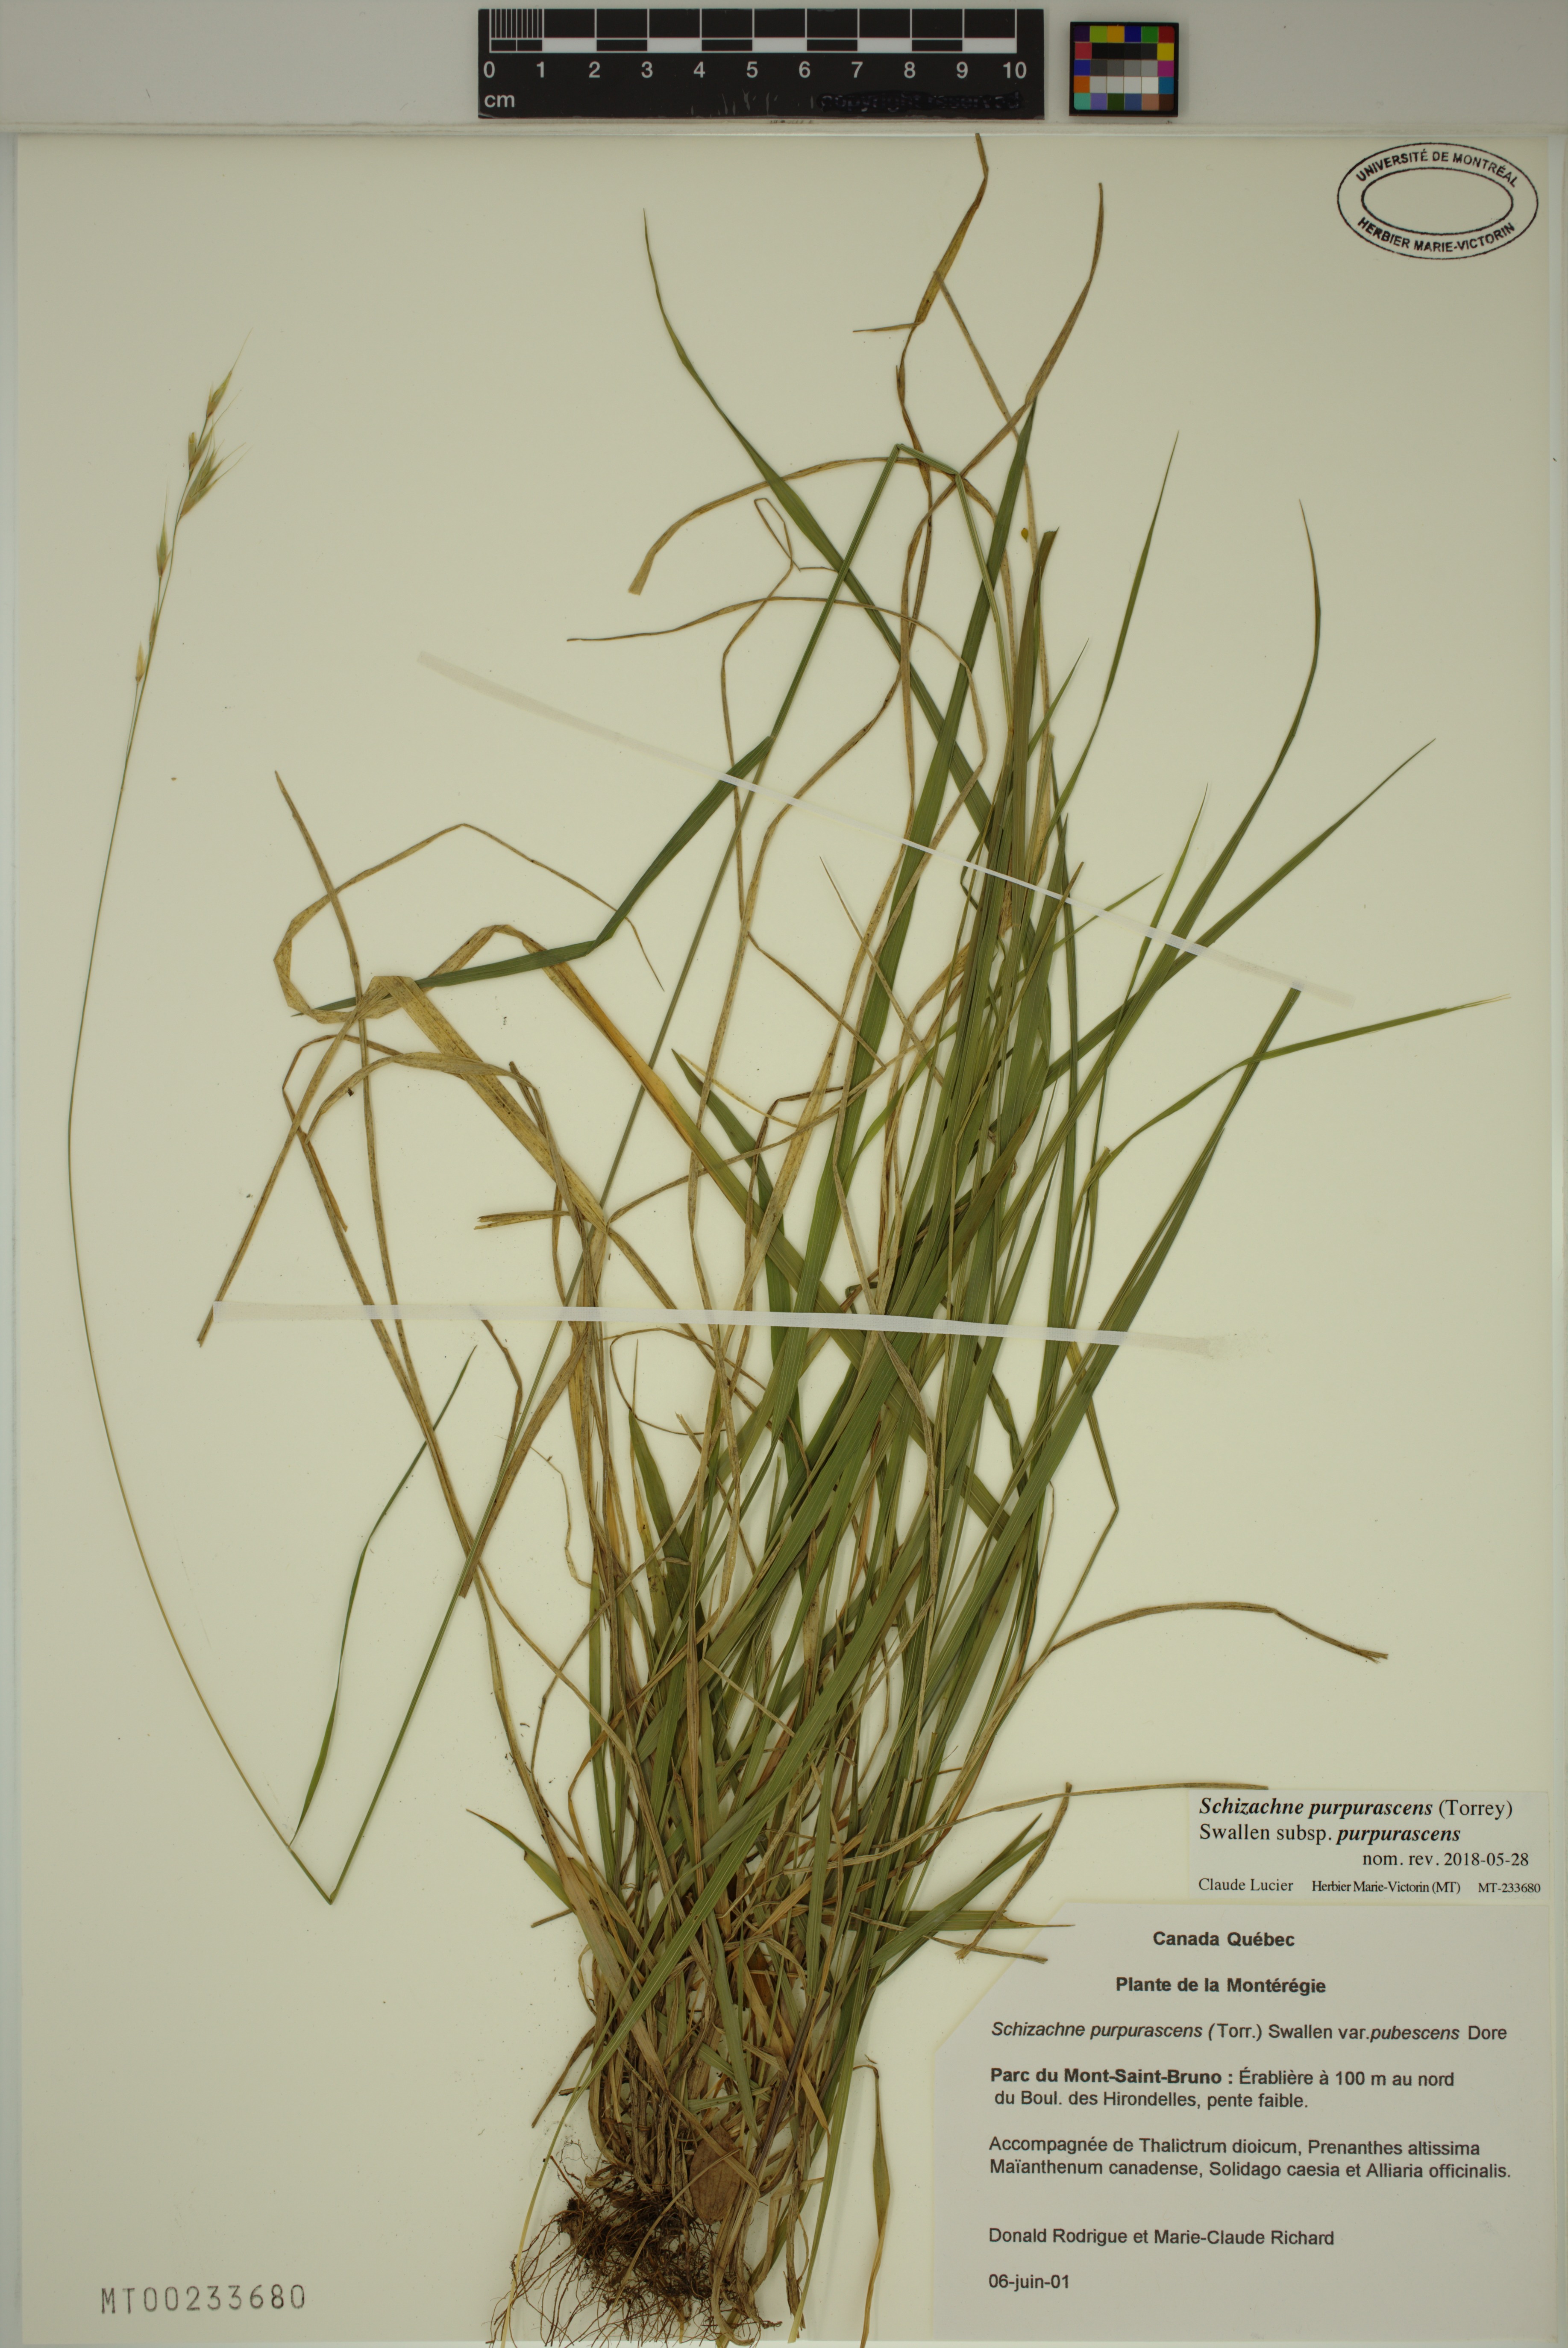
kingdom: Plantae
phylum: Tracheophyta
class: Liliopsida
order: Poales
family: Poaceae
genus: Schizachne
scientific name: Schizachne purpurascens
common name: False melic
